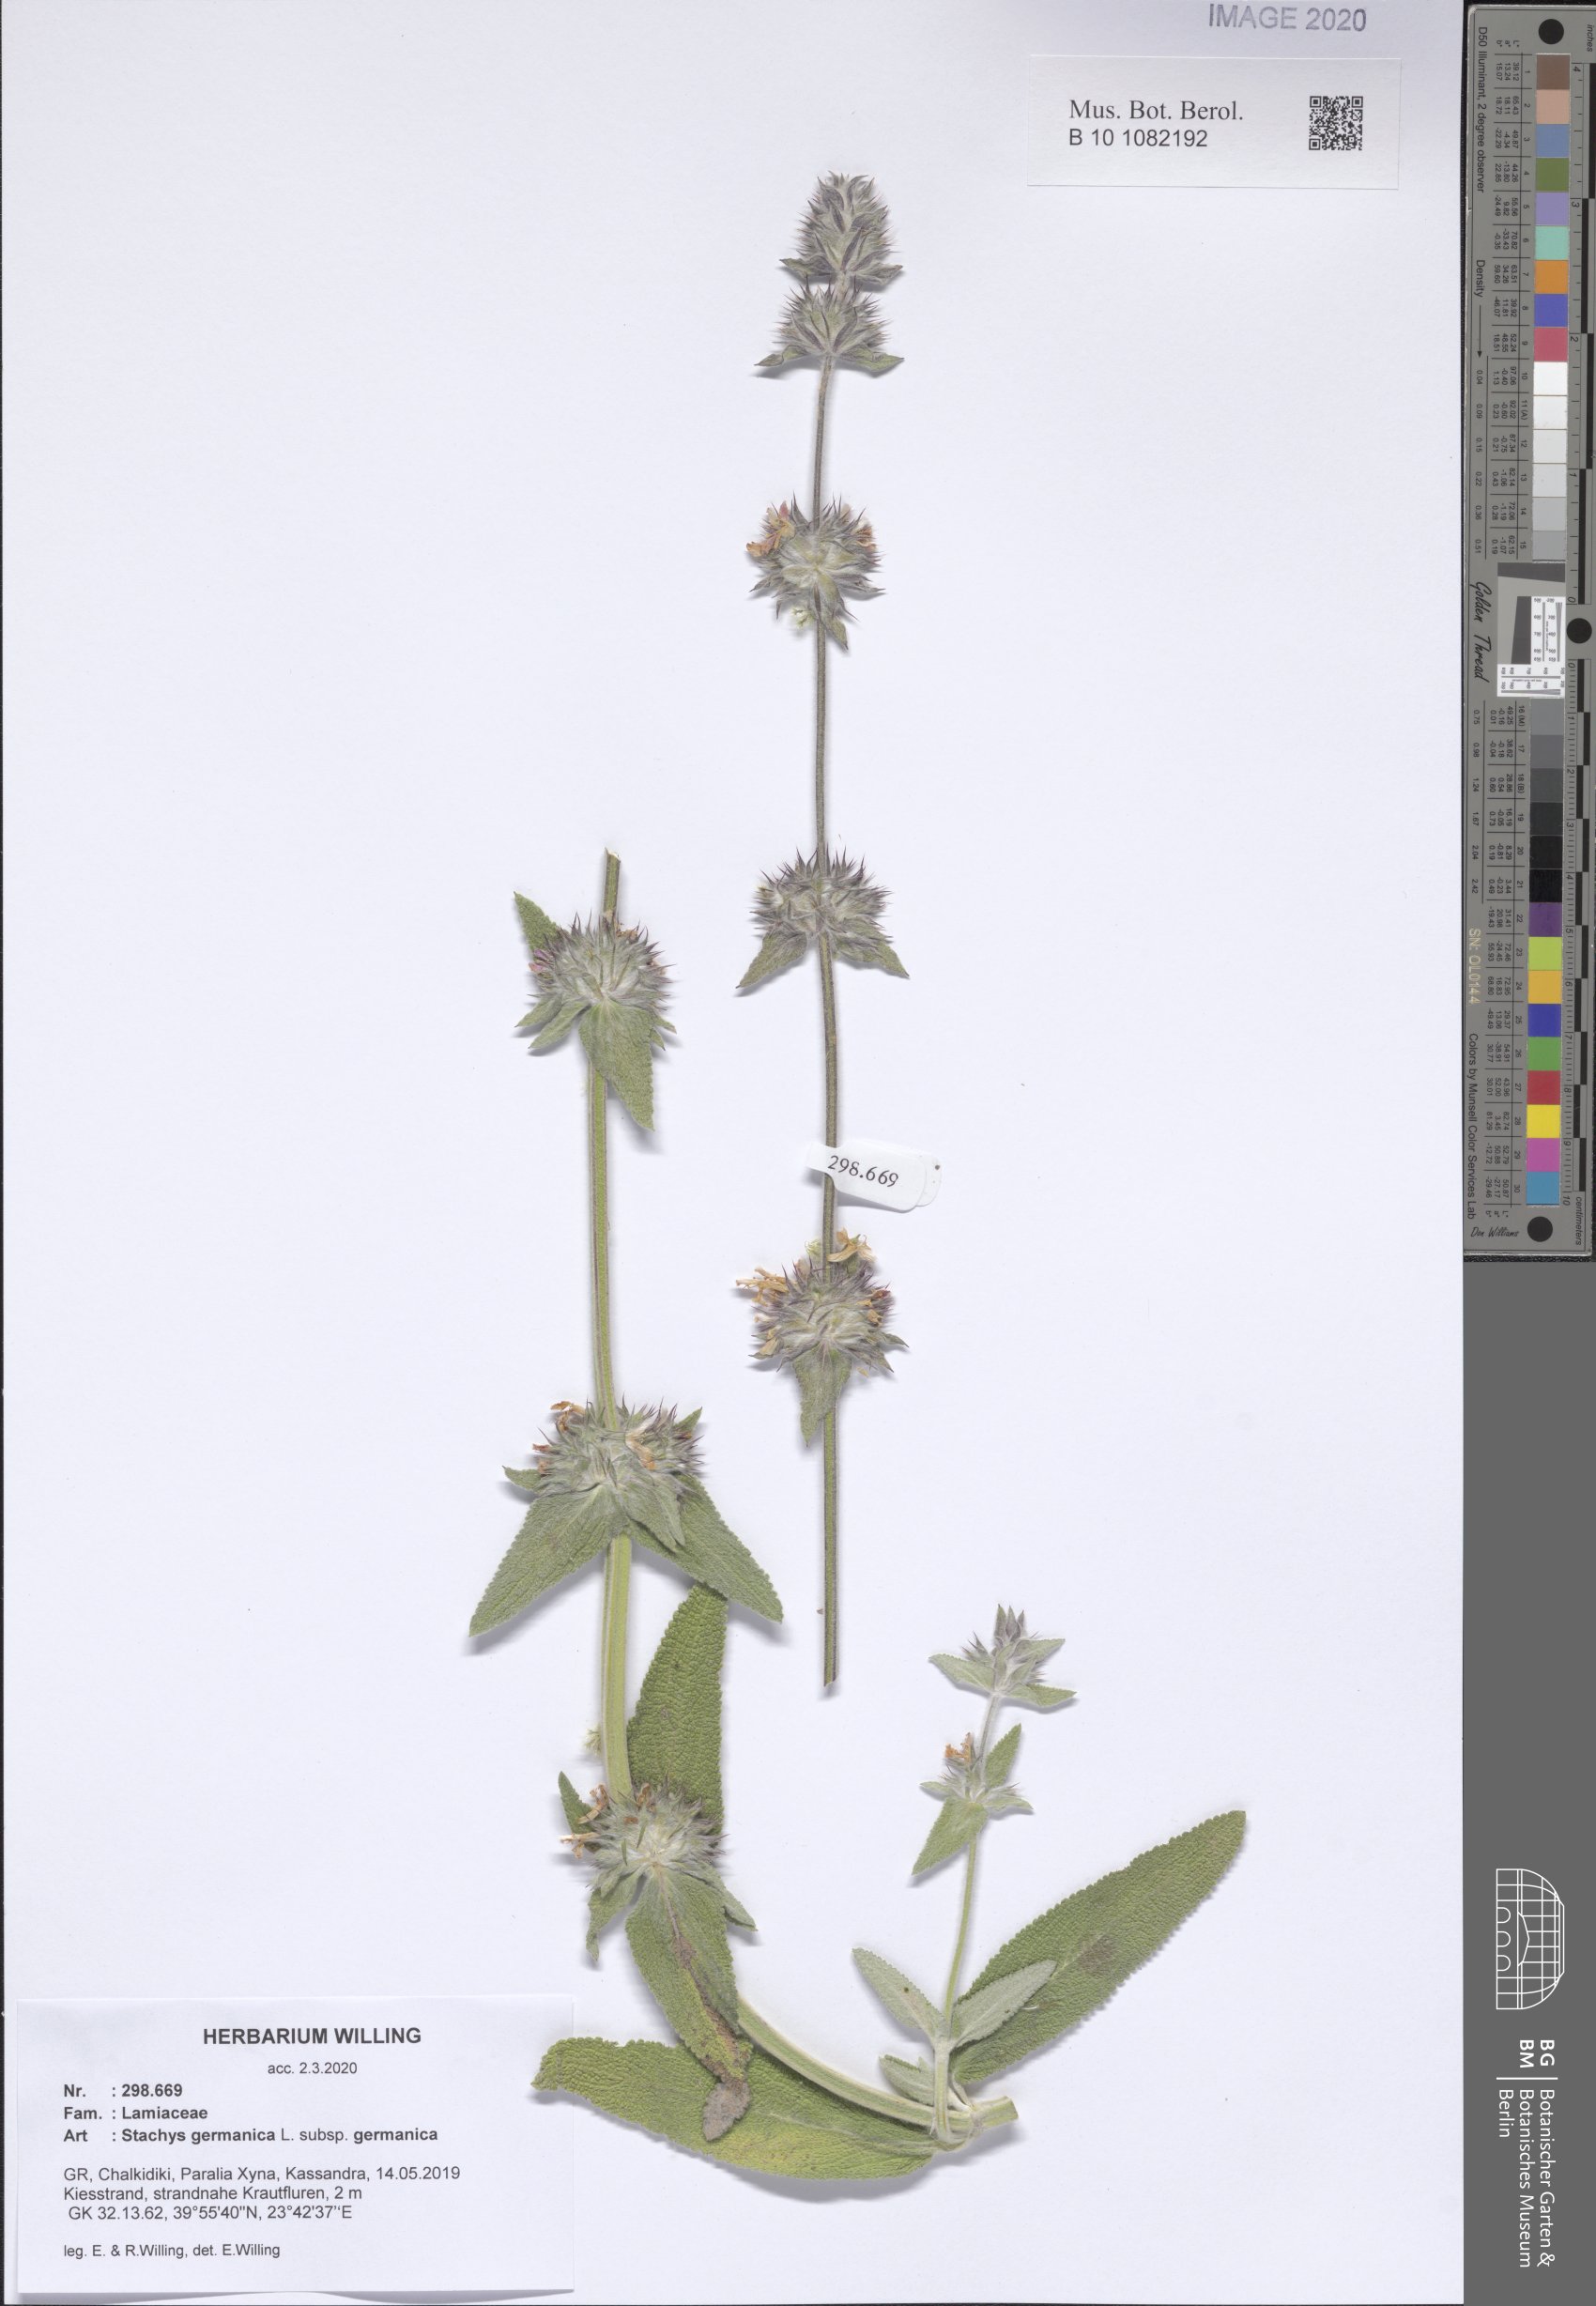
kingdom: Plantae
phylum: Tracheophyta
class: Magnoliopsida
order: Lamiales
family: Lamiaceae
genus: Stachys
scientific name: Stachys germanica
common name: Downy woundwort
